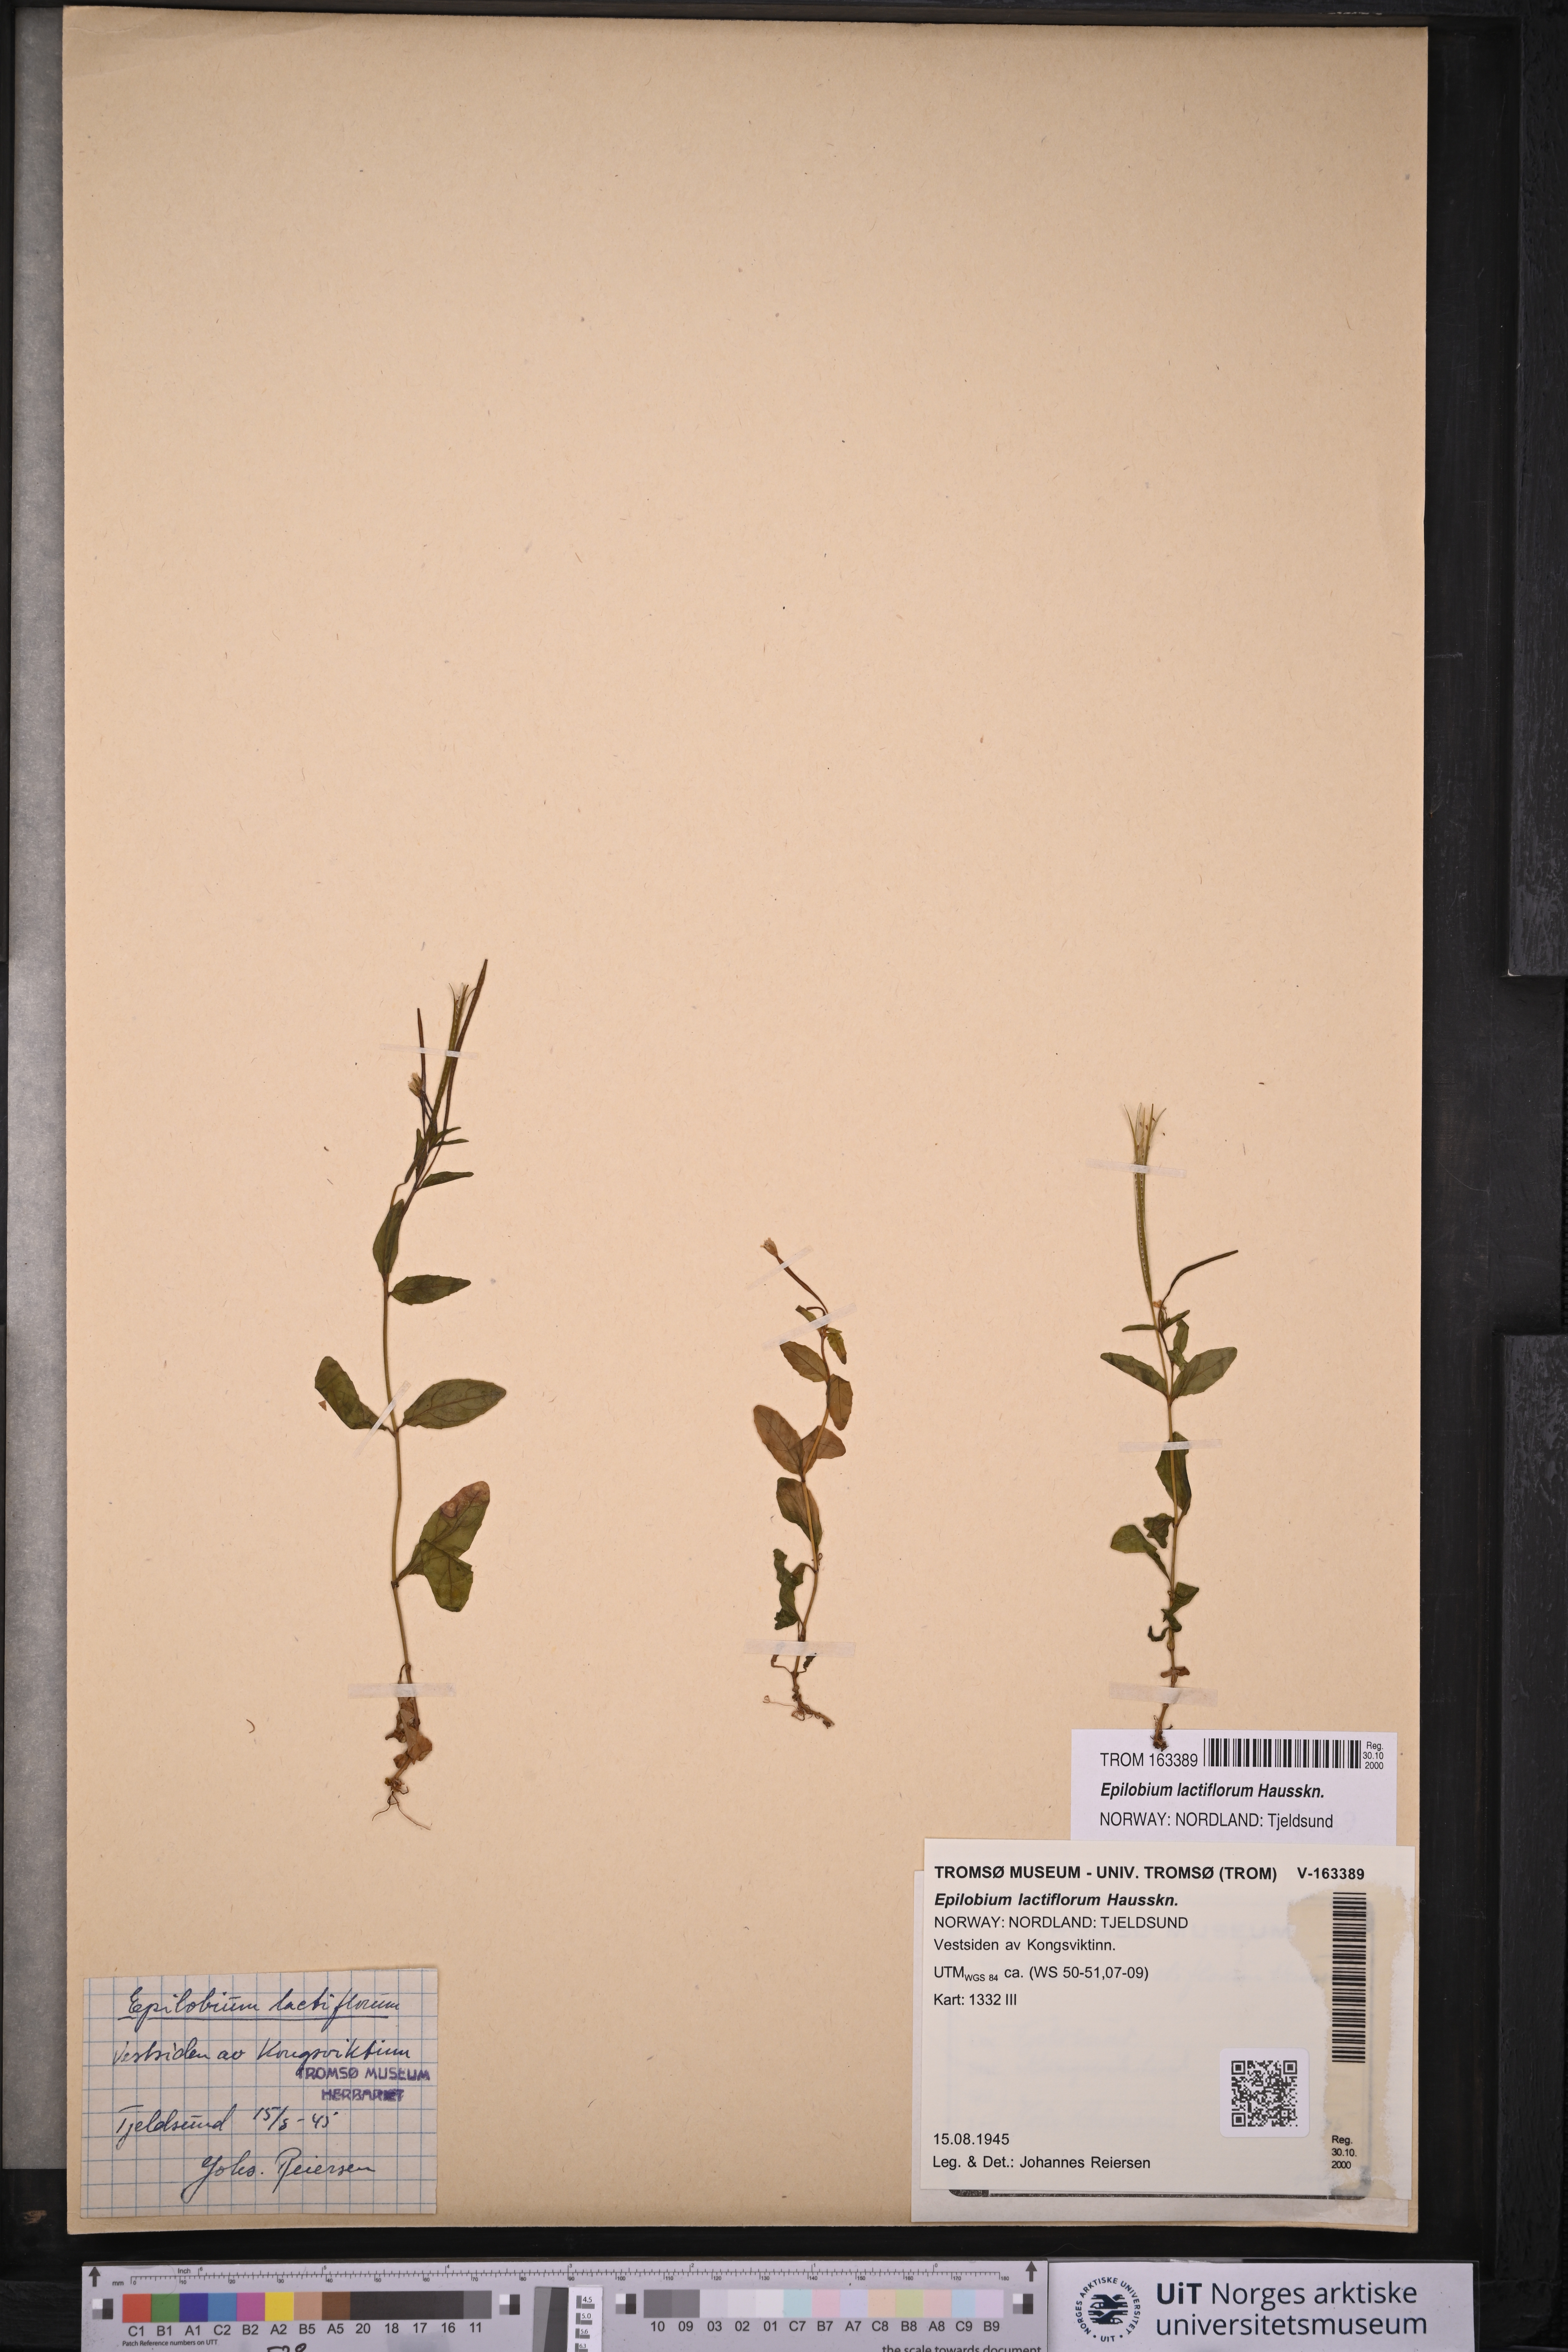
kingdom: Plantae
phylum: Tracheophyta
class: Magnoliopsida
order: Myrtales
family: Onagraceae
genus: Epilobium
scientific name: Epilobium lactiflorum
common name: Milkflower willowherb
